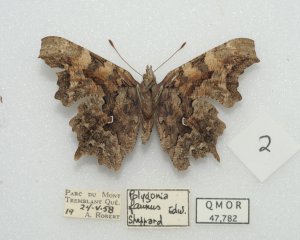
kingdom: Animalia
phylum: Arthropoda
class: Insecta
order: Lepidoptera
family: Nymphalidae
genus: Polygonia
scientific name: Polygonia faunus
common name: Green Comma
